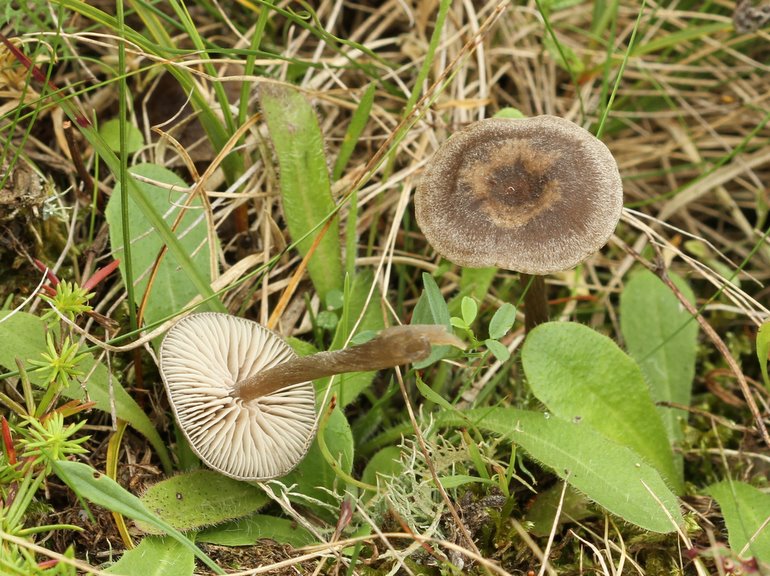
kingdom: Fungi
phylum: Basidiomycota
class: Agaricomycetes
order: Agaricales
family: Entolomataceae
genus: Entoloma
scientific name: Entoloma cuneatum
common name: dunstokket rødblad
